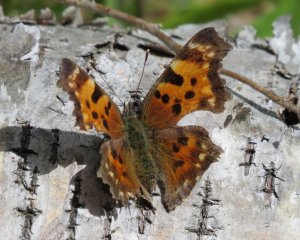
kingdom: Animalia
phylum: Arthropoda
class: Insecta
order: Lepidoptera
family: Nymphalidae
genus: Polygonia
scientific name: Polygonia faunus
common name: Green Comma
